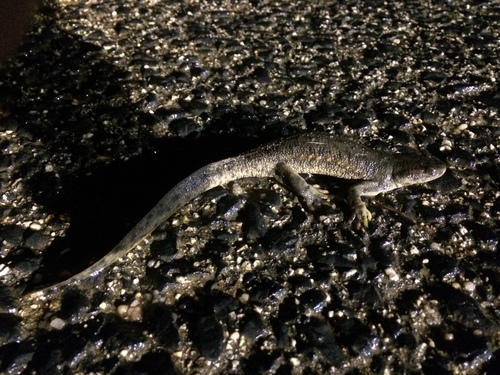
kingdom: Animalia
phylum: Chordata
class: Amphibia
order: Caudata
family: Salamandridae
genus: Pleurodeles
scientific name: Pleurodeles waltl
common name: Iberian ribbed newt
